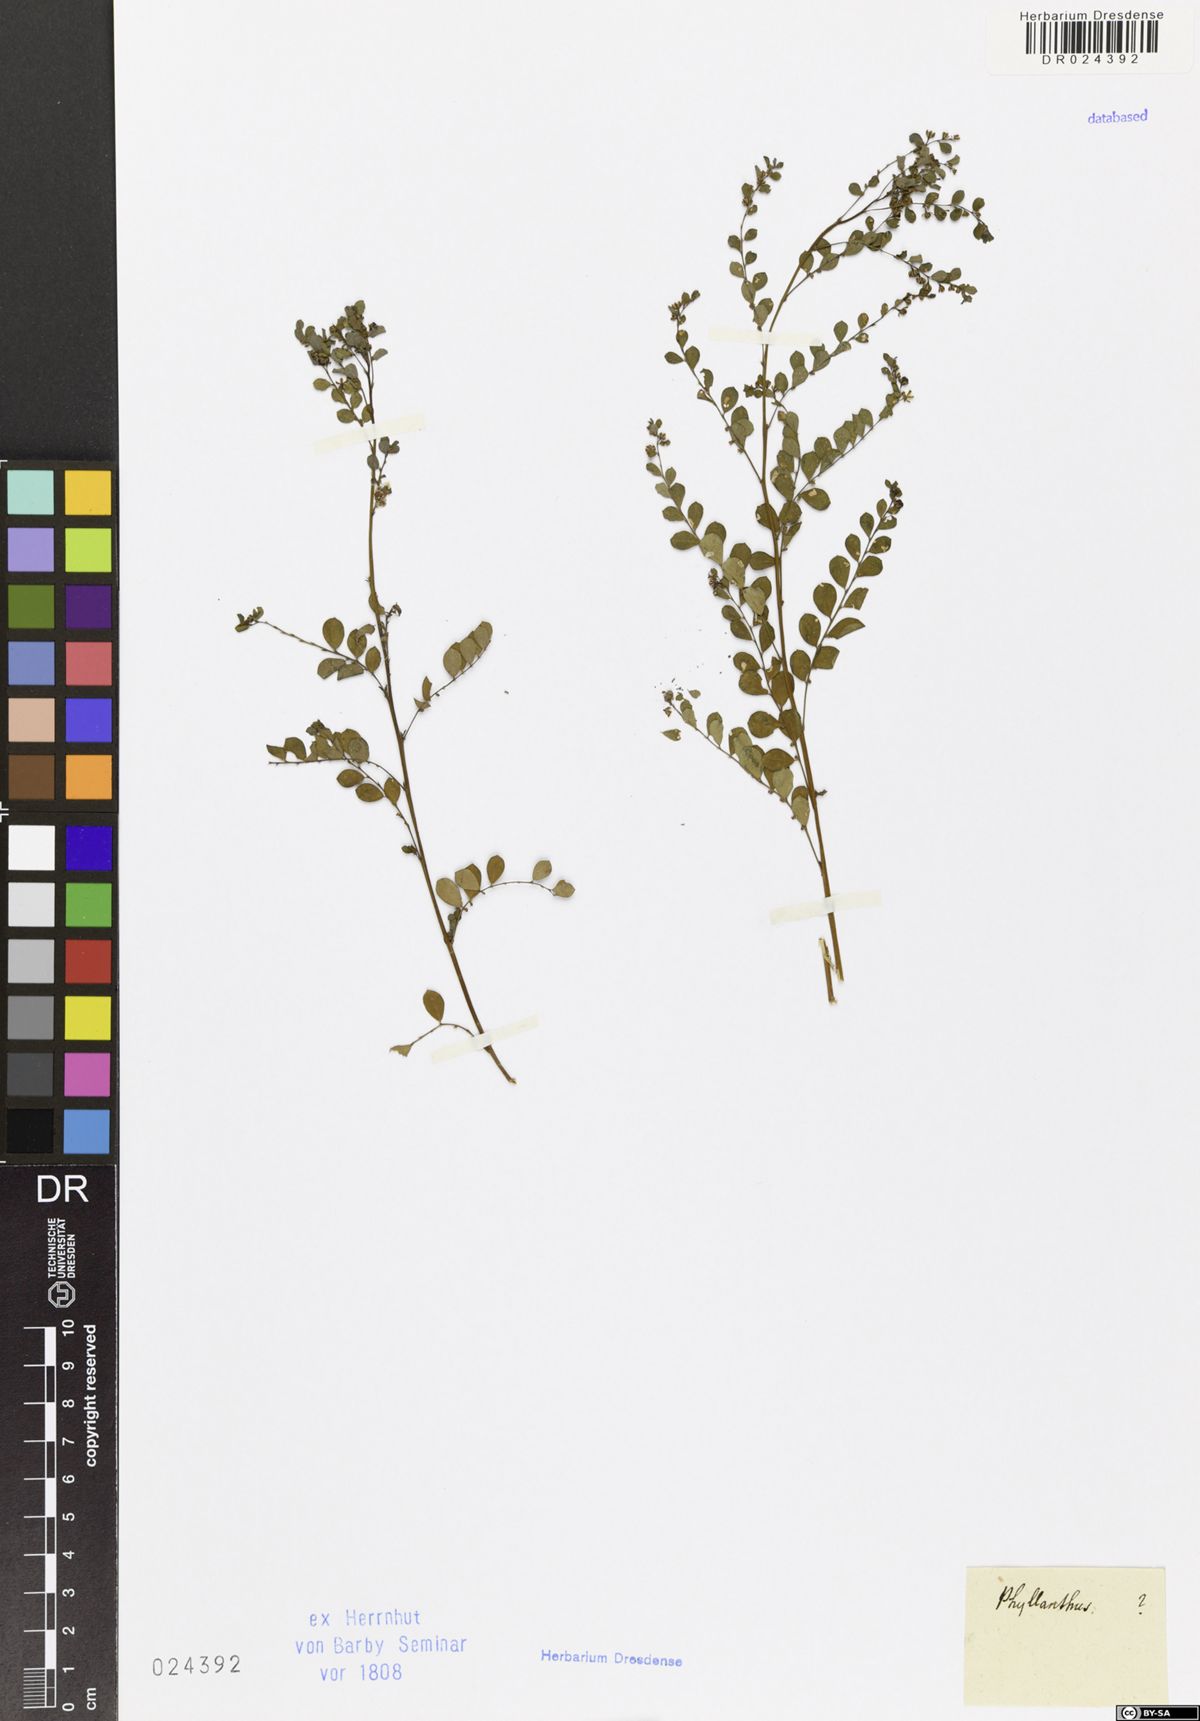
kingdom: Plantae
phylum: Tracheophyta
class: Magnoliopsida
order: Malpighiales
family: Phyllanthaceae
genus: Phyllanthus
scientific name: Phyllanthus
